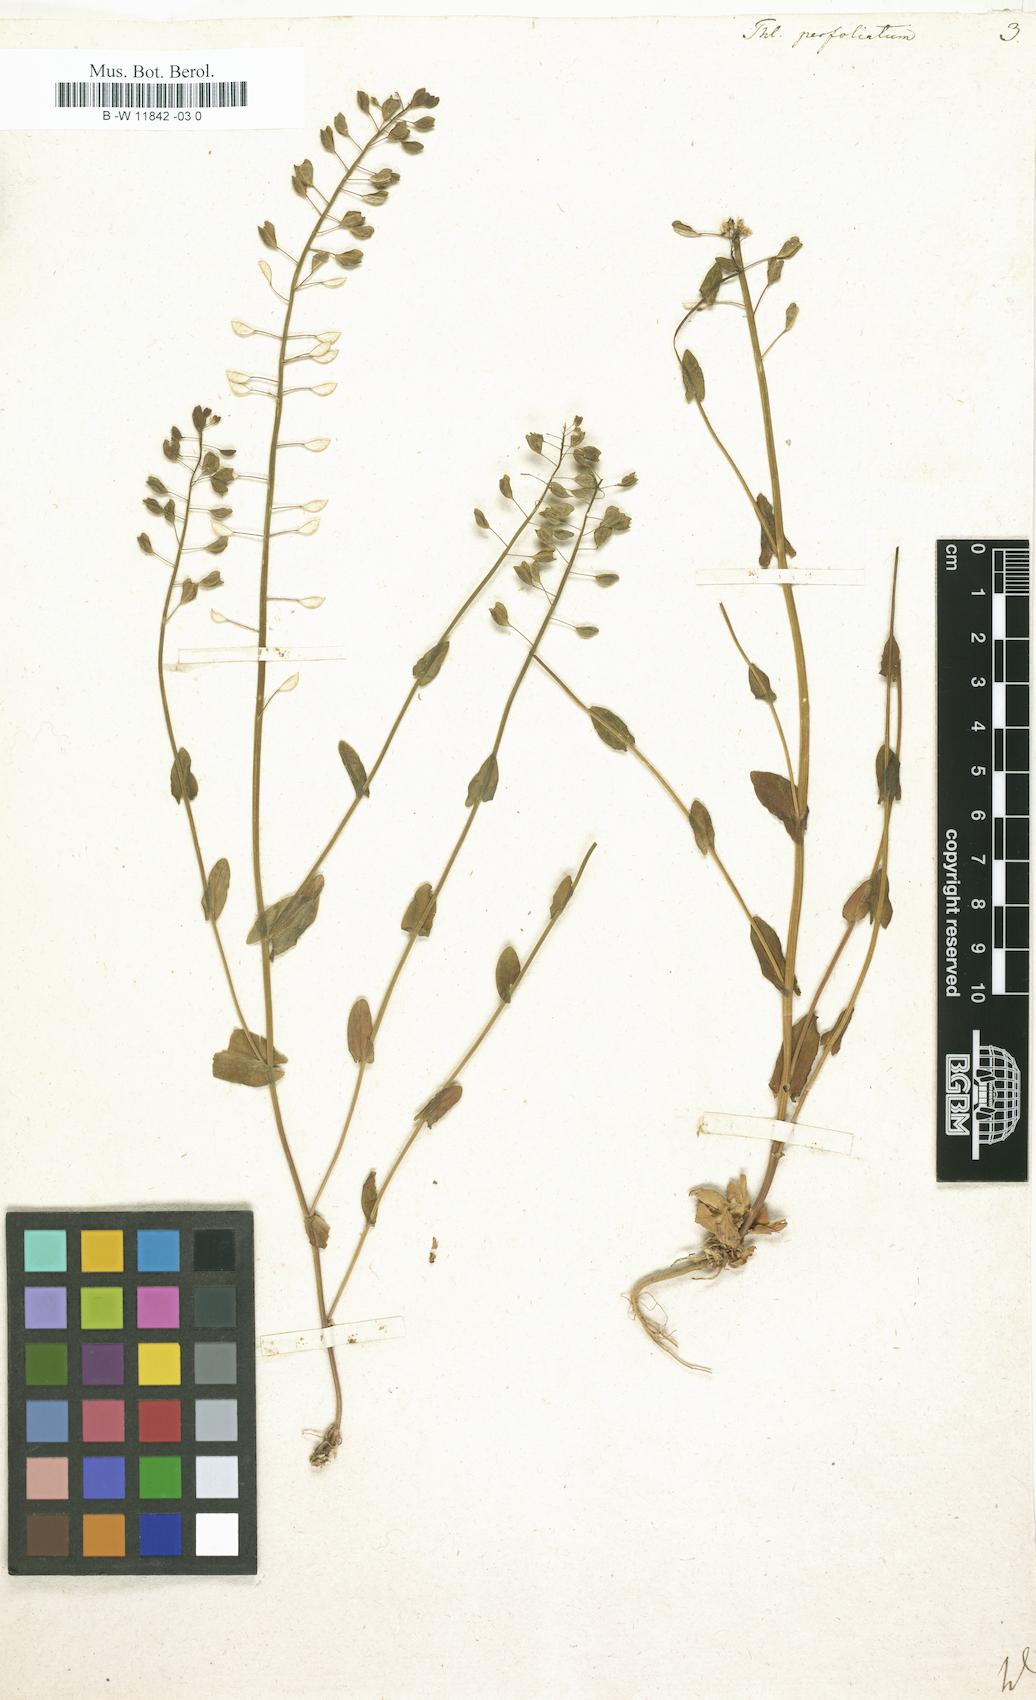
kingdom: Plantae
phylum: Tracheophyta
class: Magnoliopsida
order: Brassicales
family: Brassicaceae
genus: Noccaea
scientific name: Noccaea perfoliata
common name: Perfoliate pennycress
